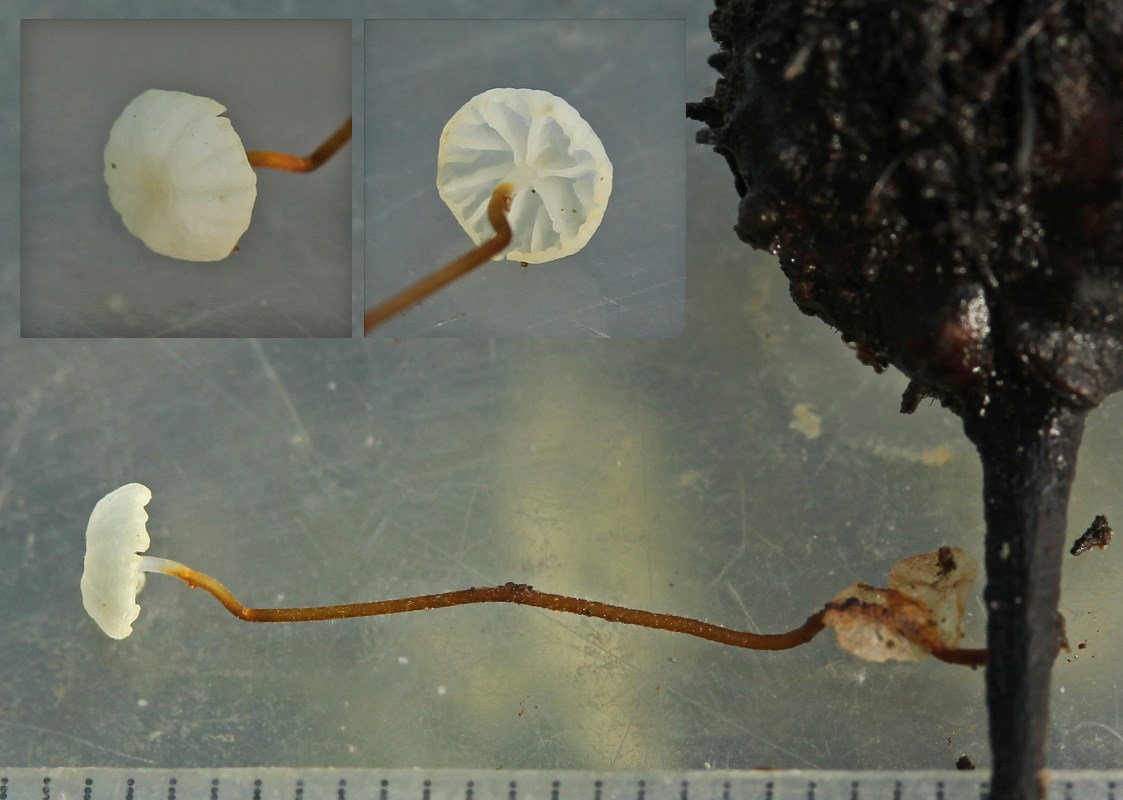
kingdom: Fungi
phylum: Basidiomycota
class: Agaricomycetes
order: Agaricales
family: Physalacriaceae
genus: Rhizomarasmius
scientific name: Rhizomarasmius setosus
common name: bøgeblads-bruskhat
